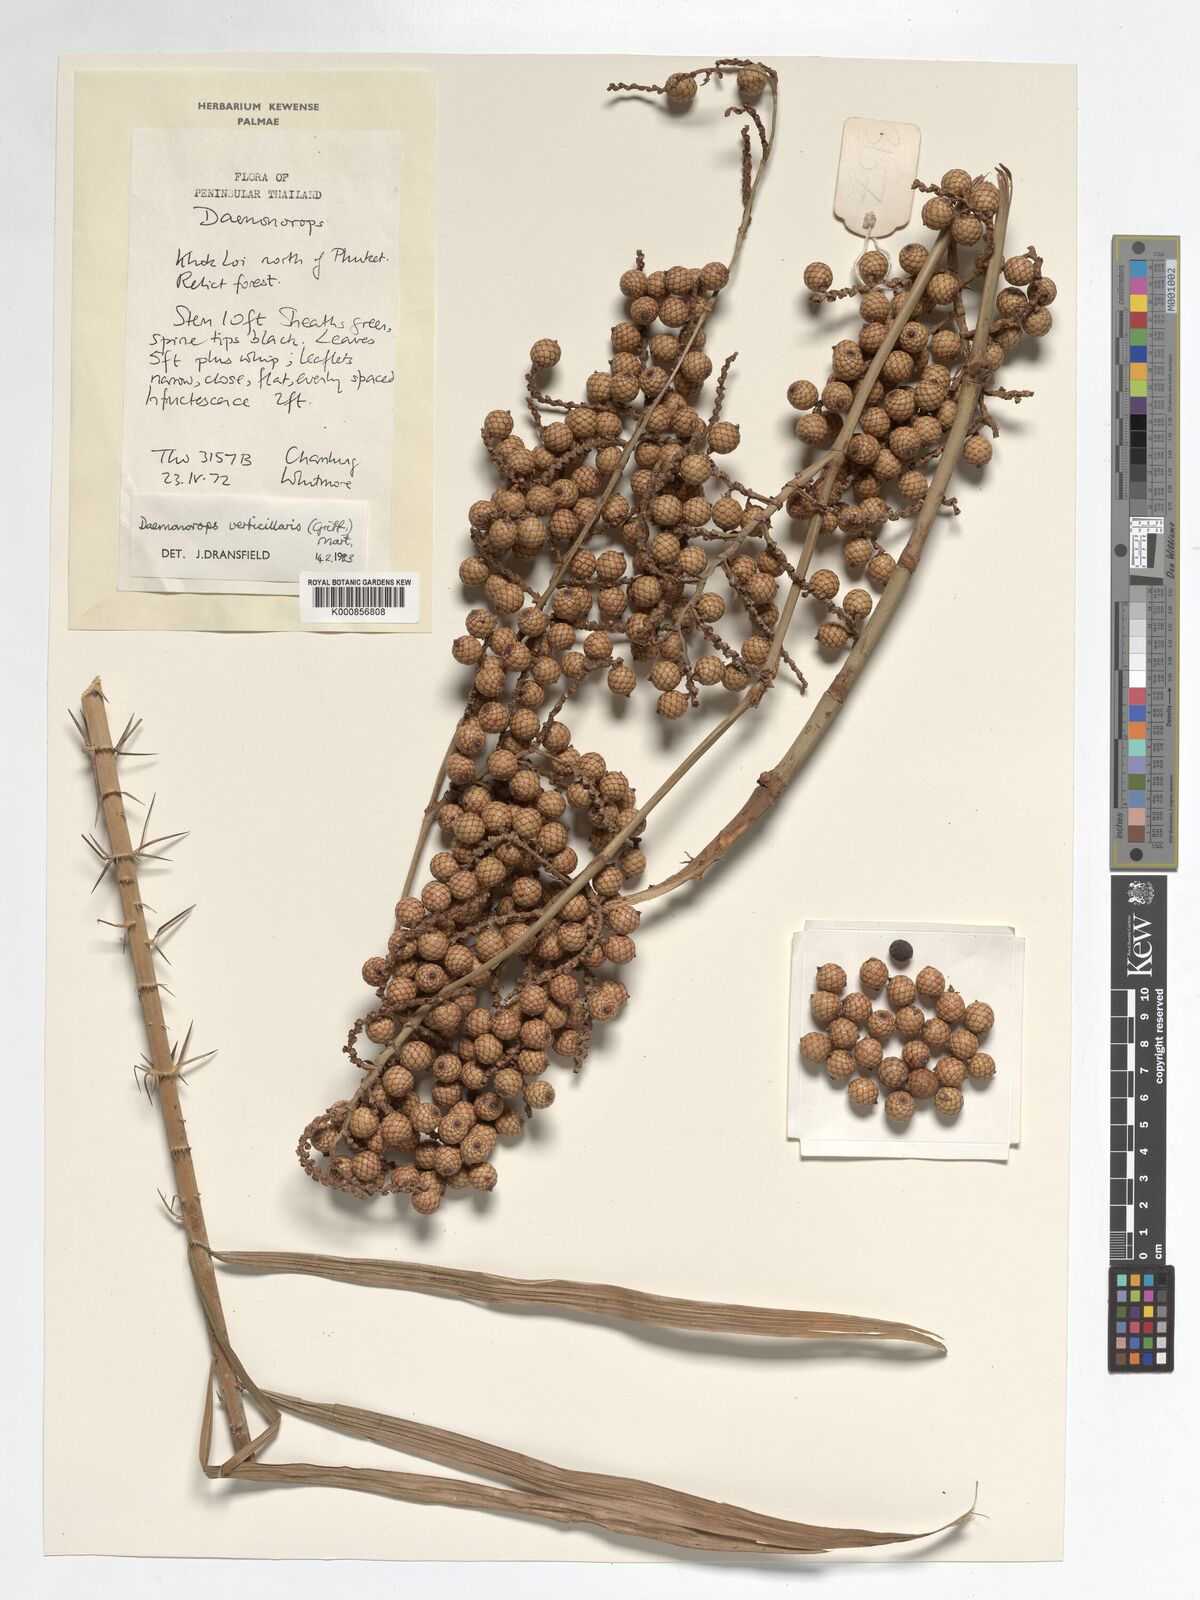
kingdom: Plantae
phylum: Tracheophyta
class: Liliopsida
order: Arecales
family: Arecaceae
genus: Calamus
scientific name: Calamus verticillaris
